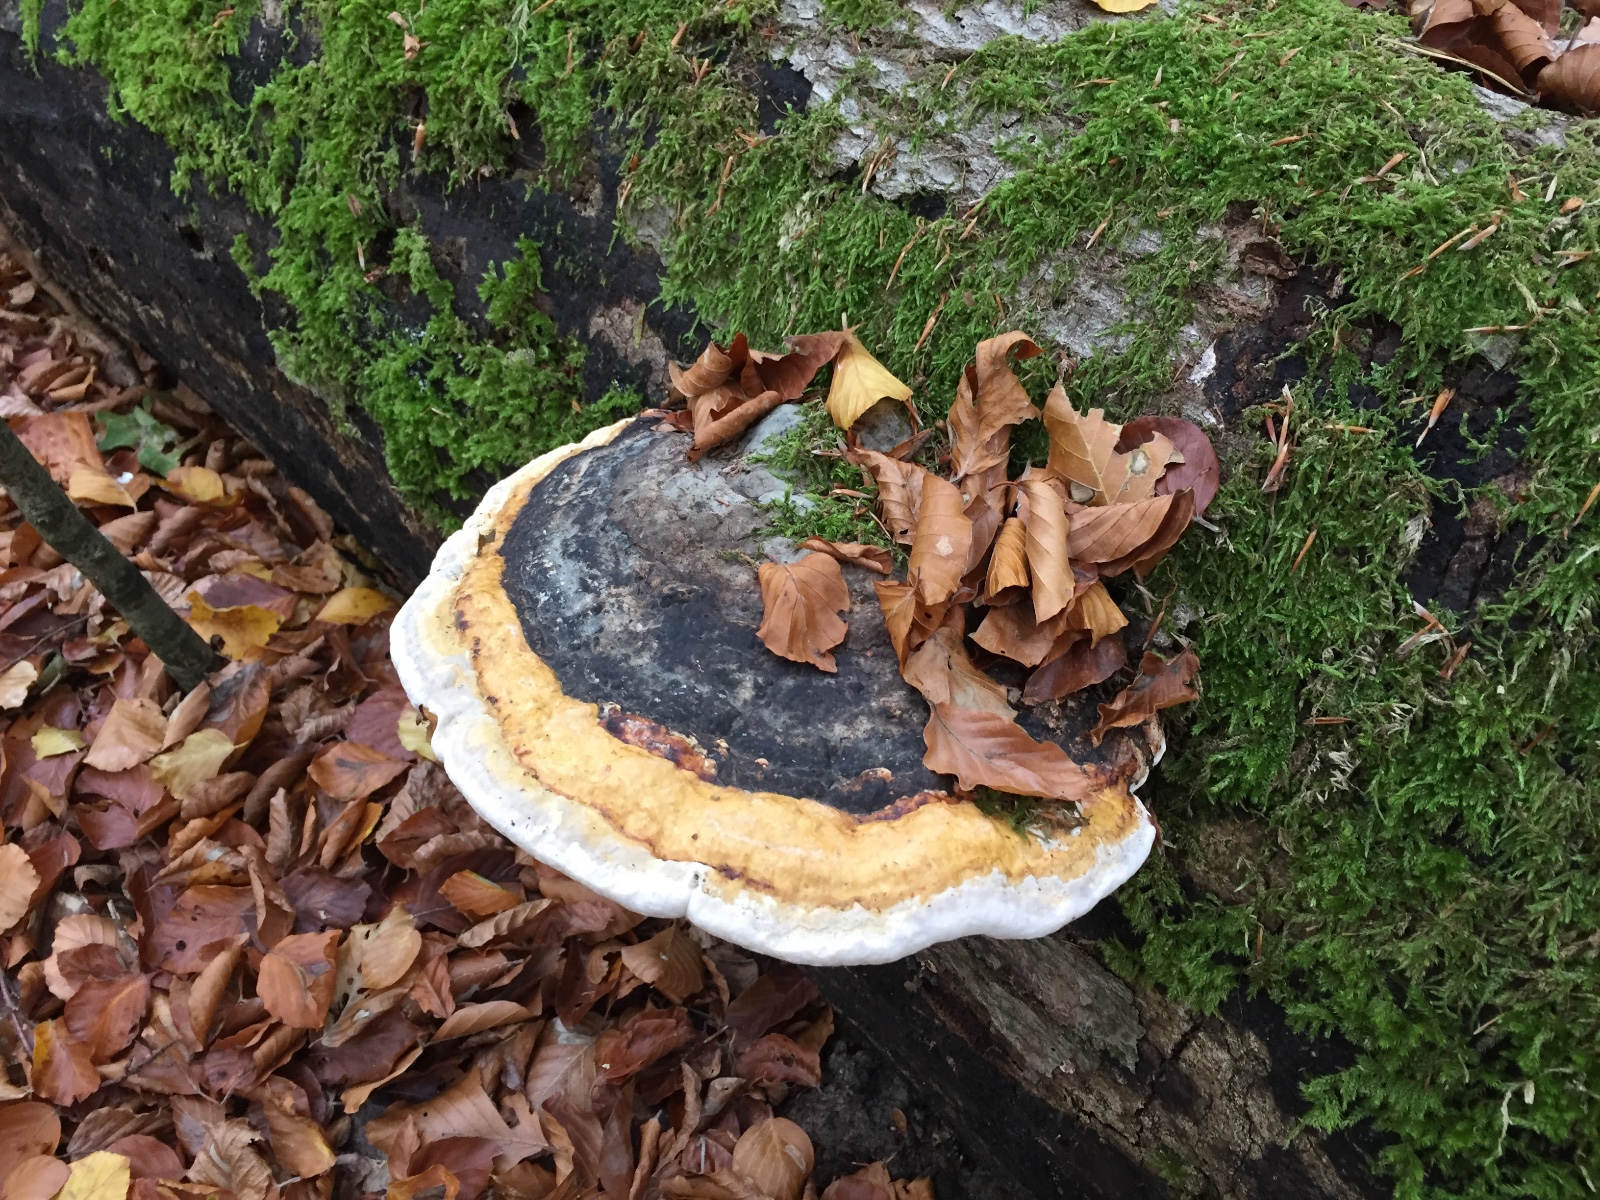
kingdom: Fungi
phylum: Basidiomycota
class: Agaricomycetes
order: Polyporales
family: Fomitopsidaceae
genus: Fomitopsis
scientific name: Fomitopsis pinicola
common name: randbæltet hovporesvamp
